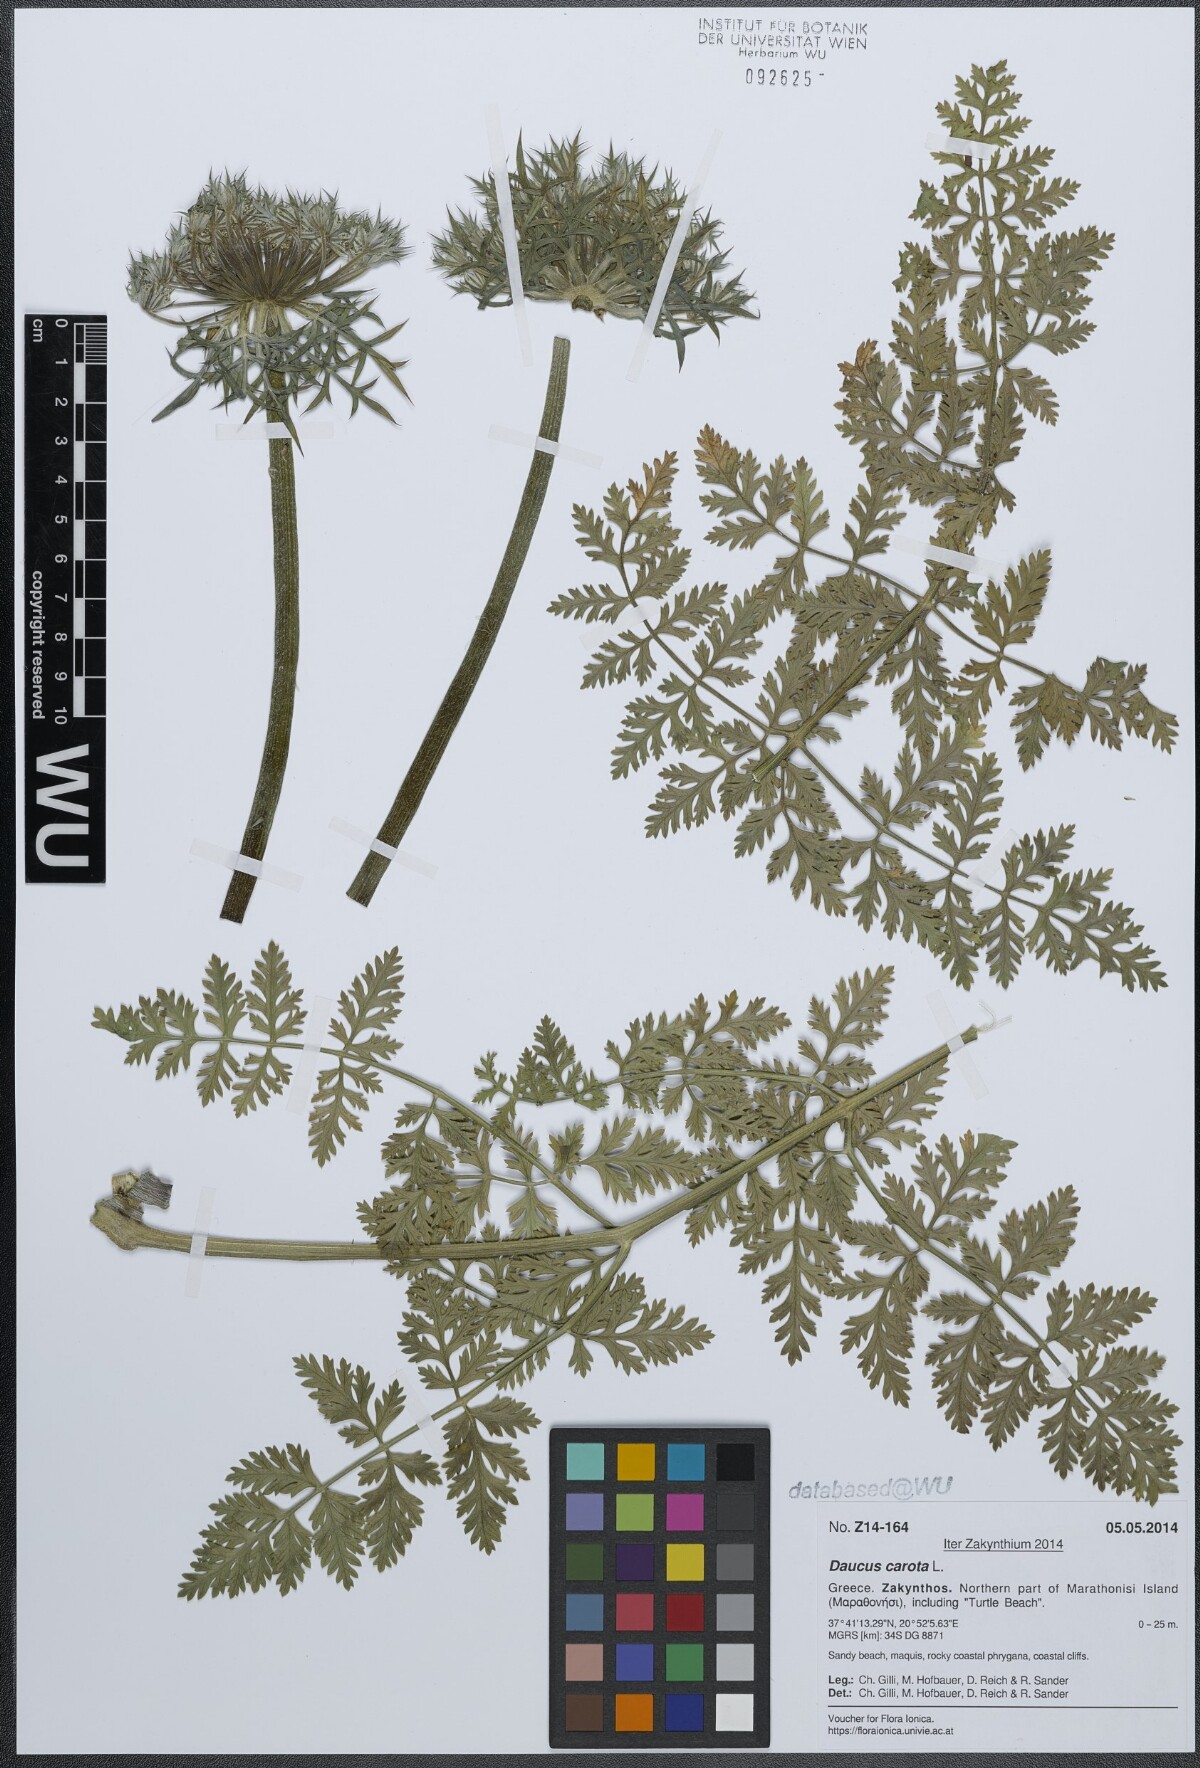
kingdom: Plantae
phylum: Tracheophyta
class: Magnoliopsida
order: Apiales
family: Apiaceae
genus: Daucus
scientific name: Daucus carota
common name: Wild carrot
